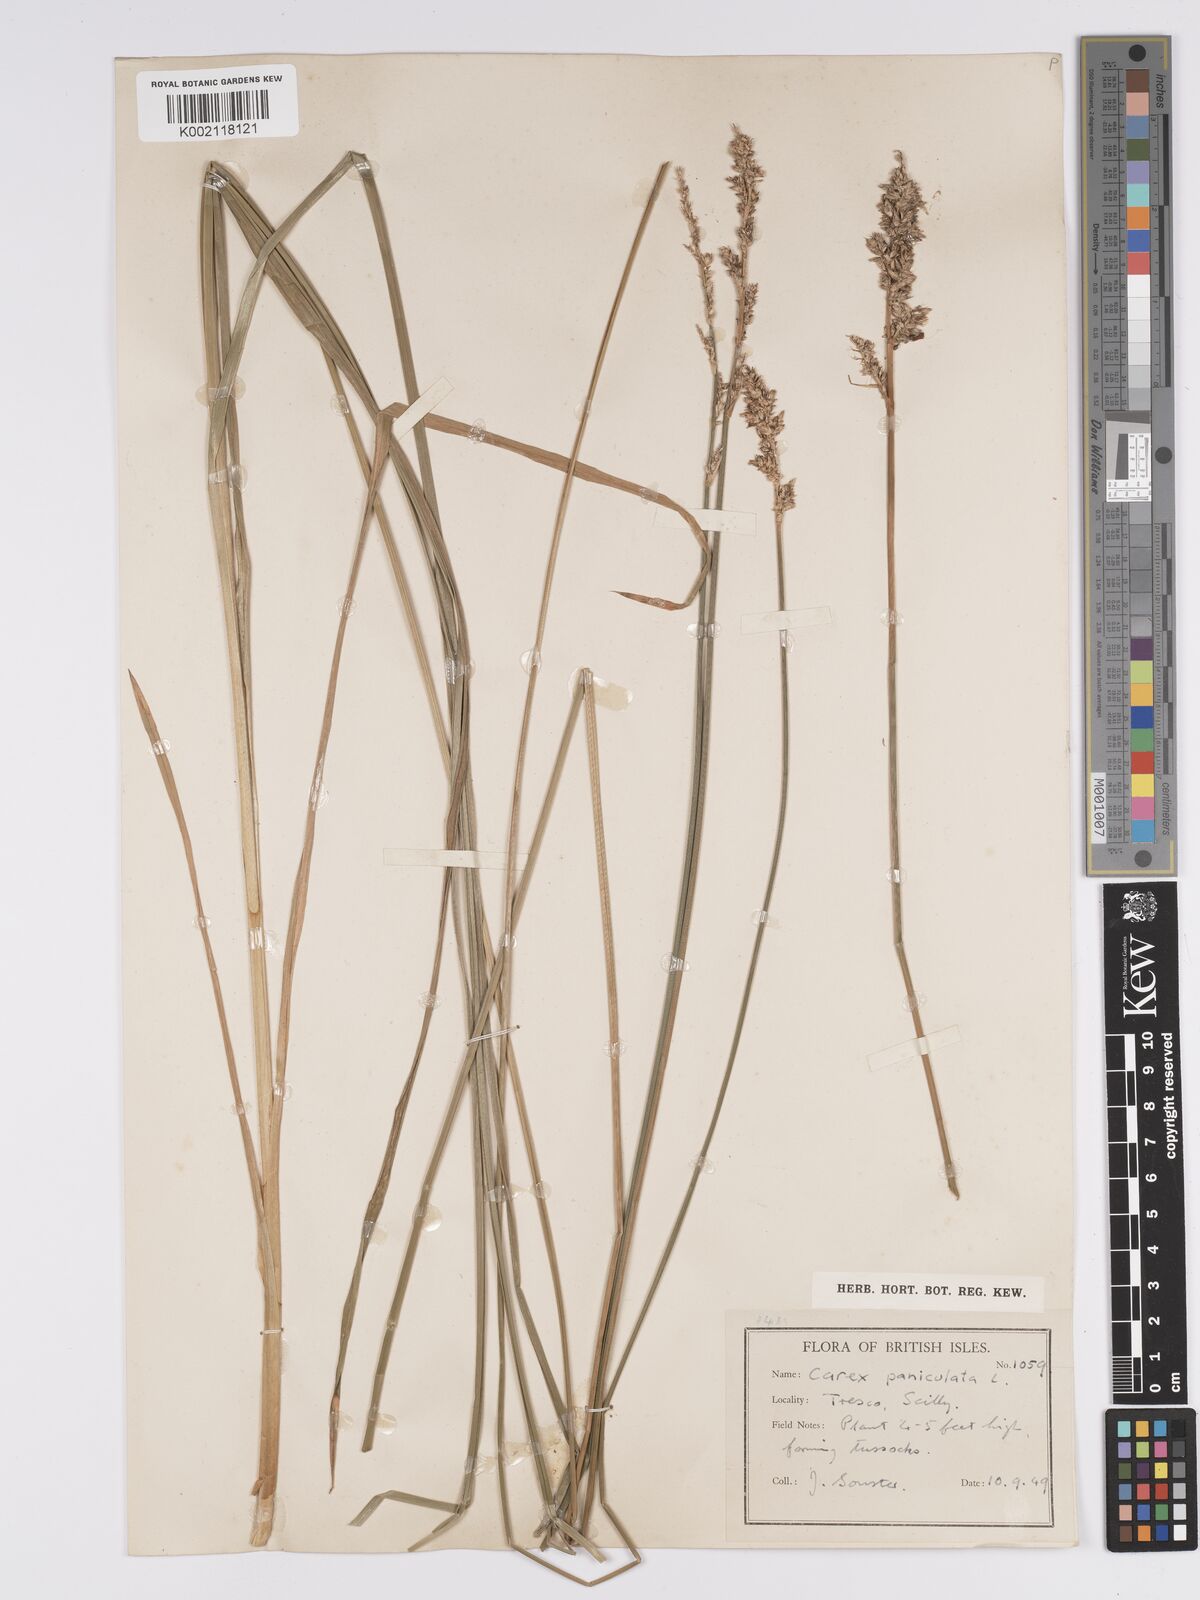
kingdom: Plantae
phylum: Tracheophyta
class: Liliopsida
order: Poales
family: Cyperaceae
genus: Carex
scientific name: Carex paniculata
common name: Greater tussock-sedge
